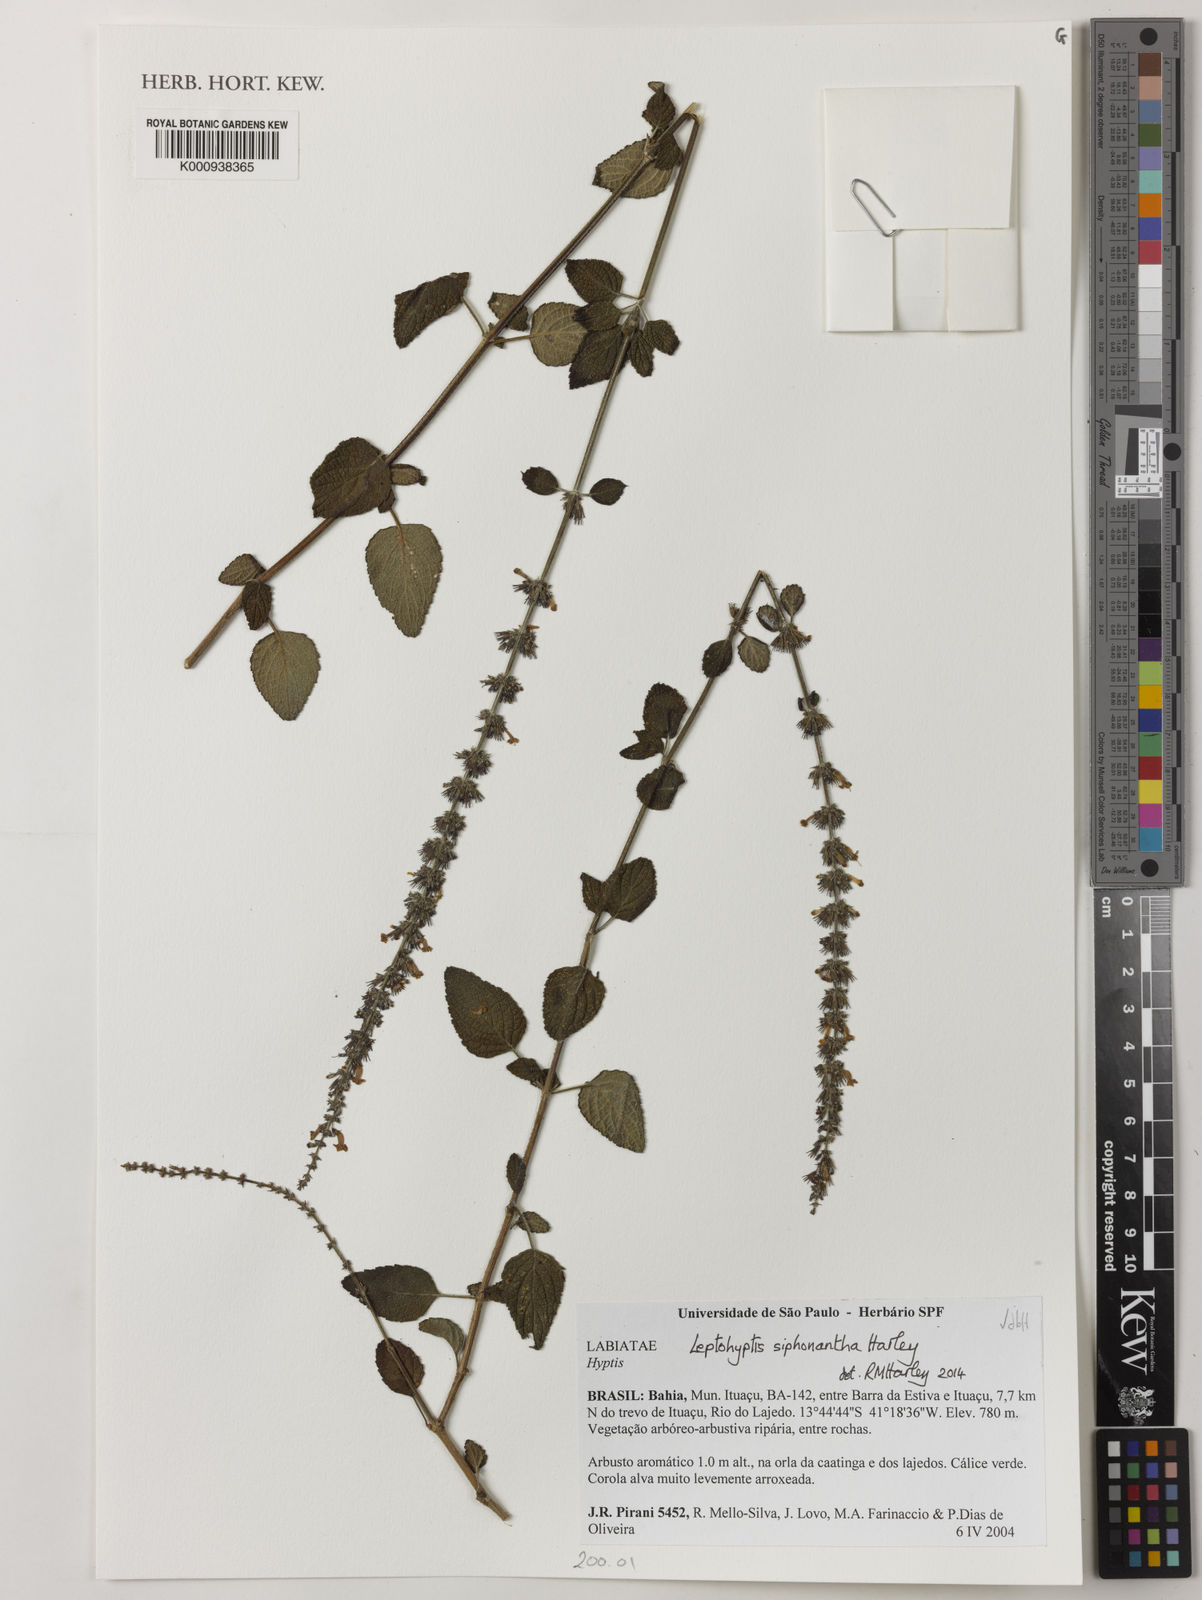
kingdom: Plantae
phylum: Tracheophyta
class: Magnoliopsida
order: Lamiales
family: Lamiaceae
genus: Leptohyptis
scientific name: Leptohyptis siphonantha
